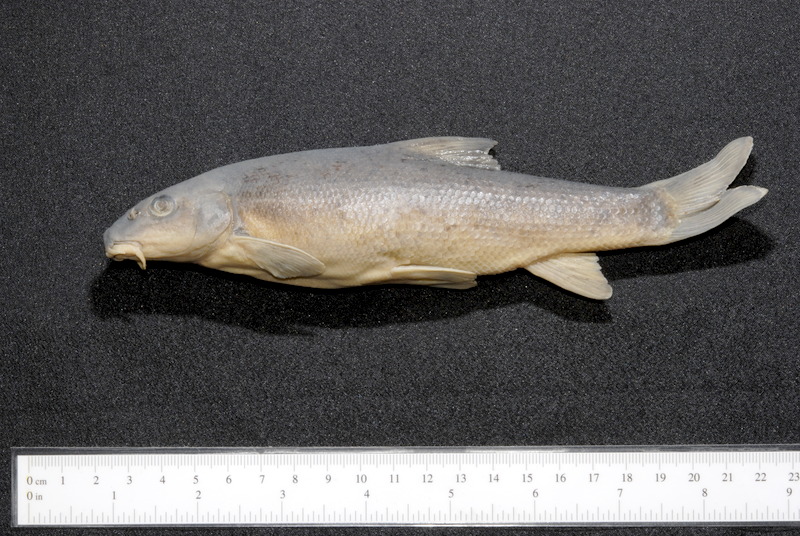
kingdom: Animalia
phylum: Chordata
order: Cypriniformes
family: Cyprinidae
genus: Barbus
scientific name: Barbus barbus
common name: Barbel
